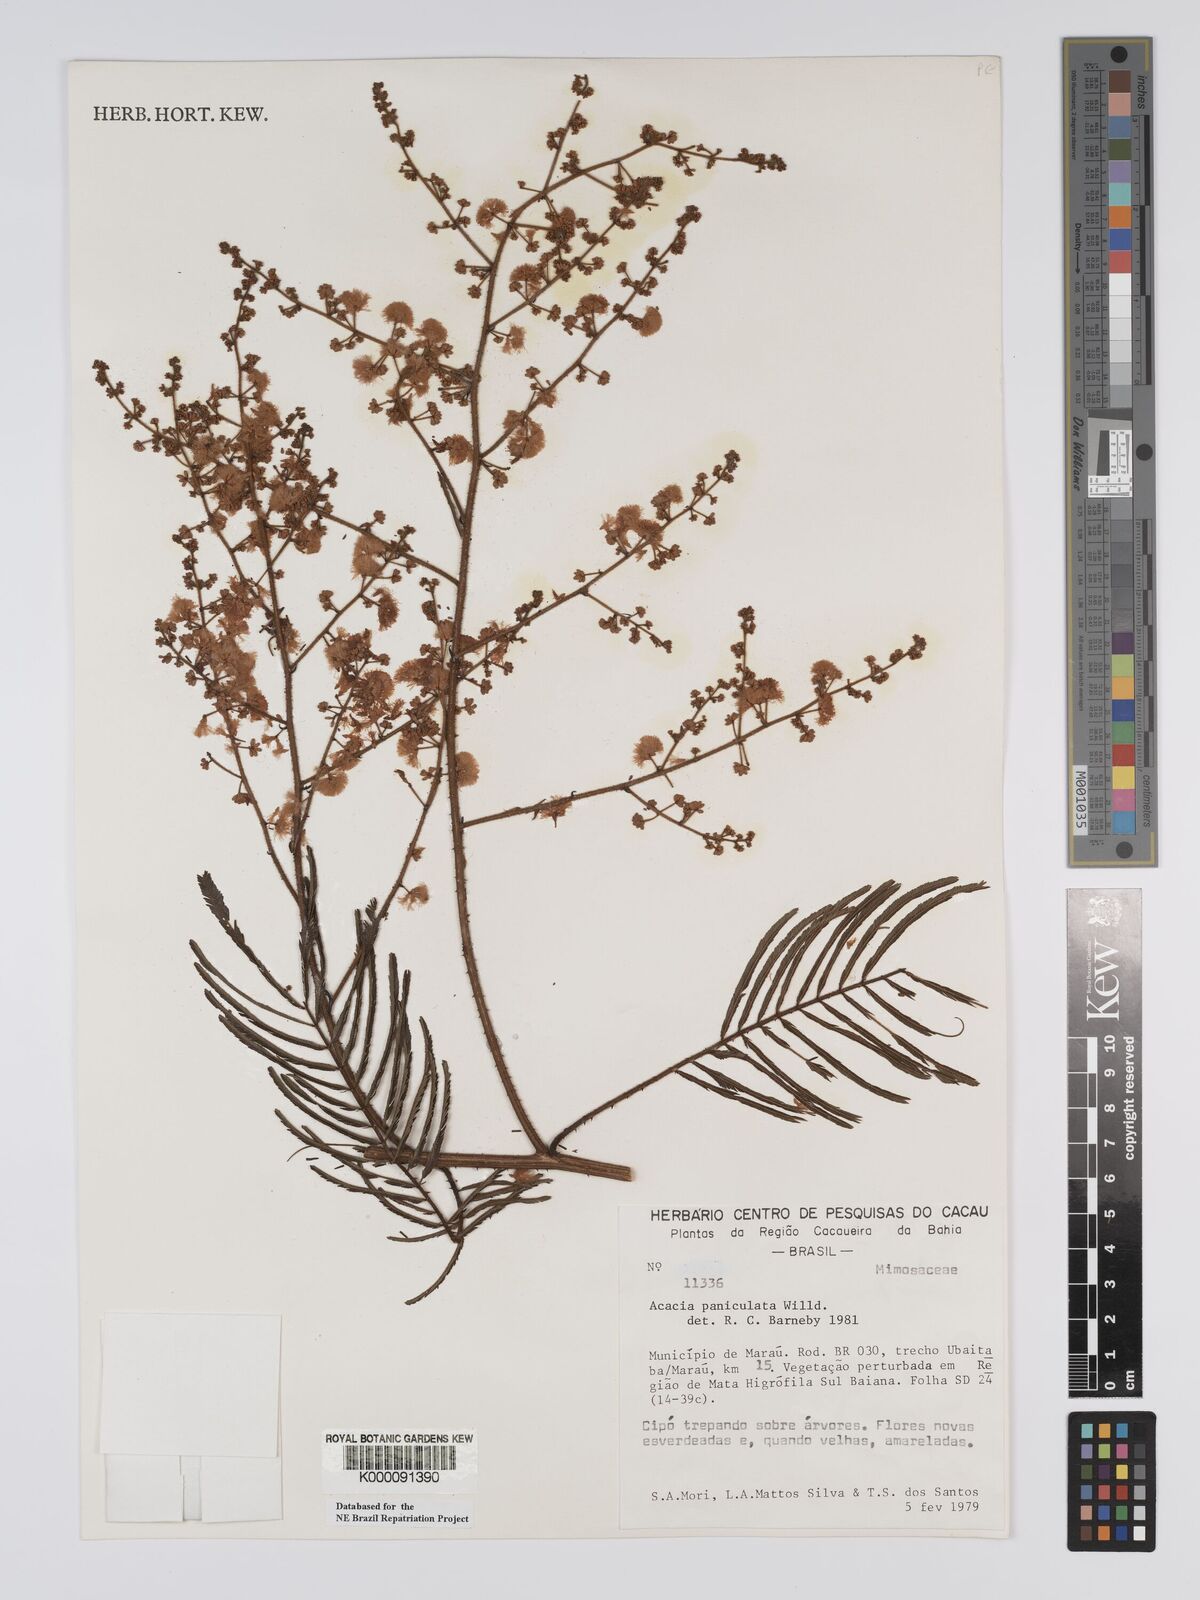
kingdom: Plantae
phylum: Tracheophyta
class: Magnoliopsida
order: Fabales
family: Fabaceae
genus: Senegalia
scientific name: Senegalia tenuifolia
